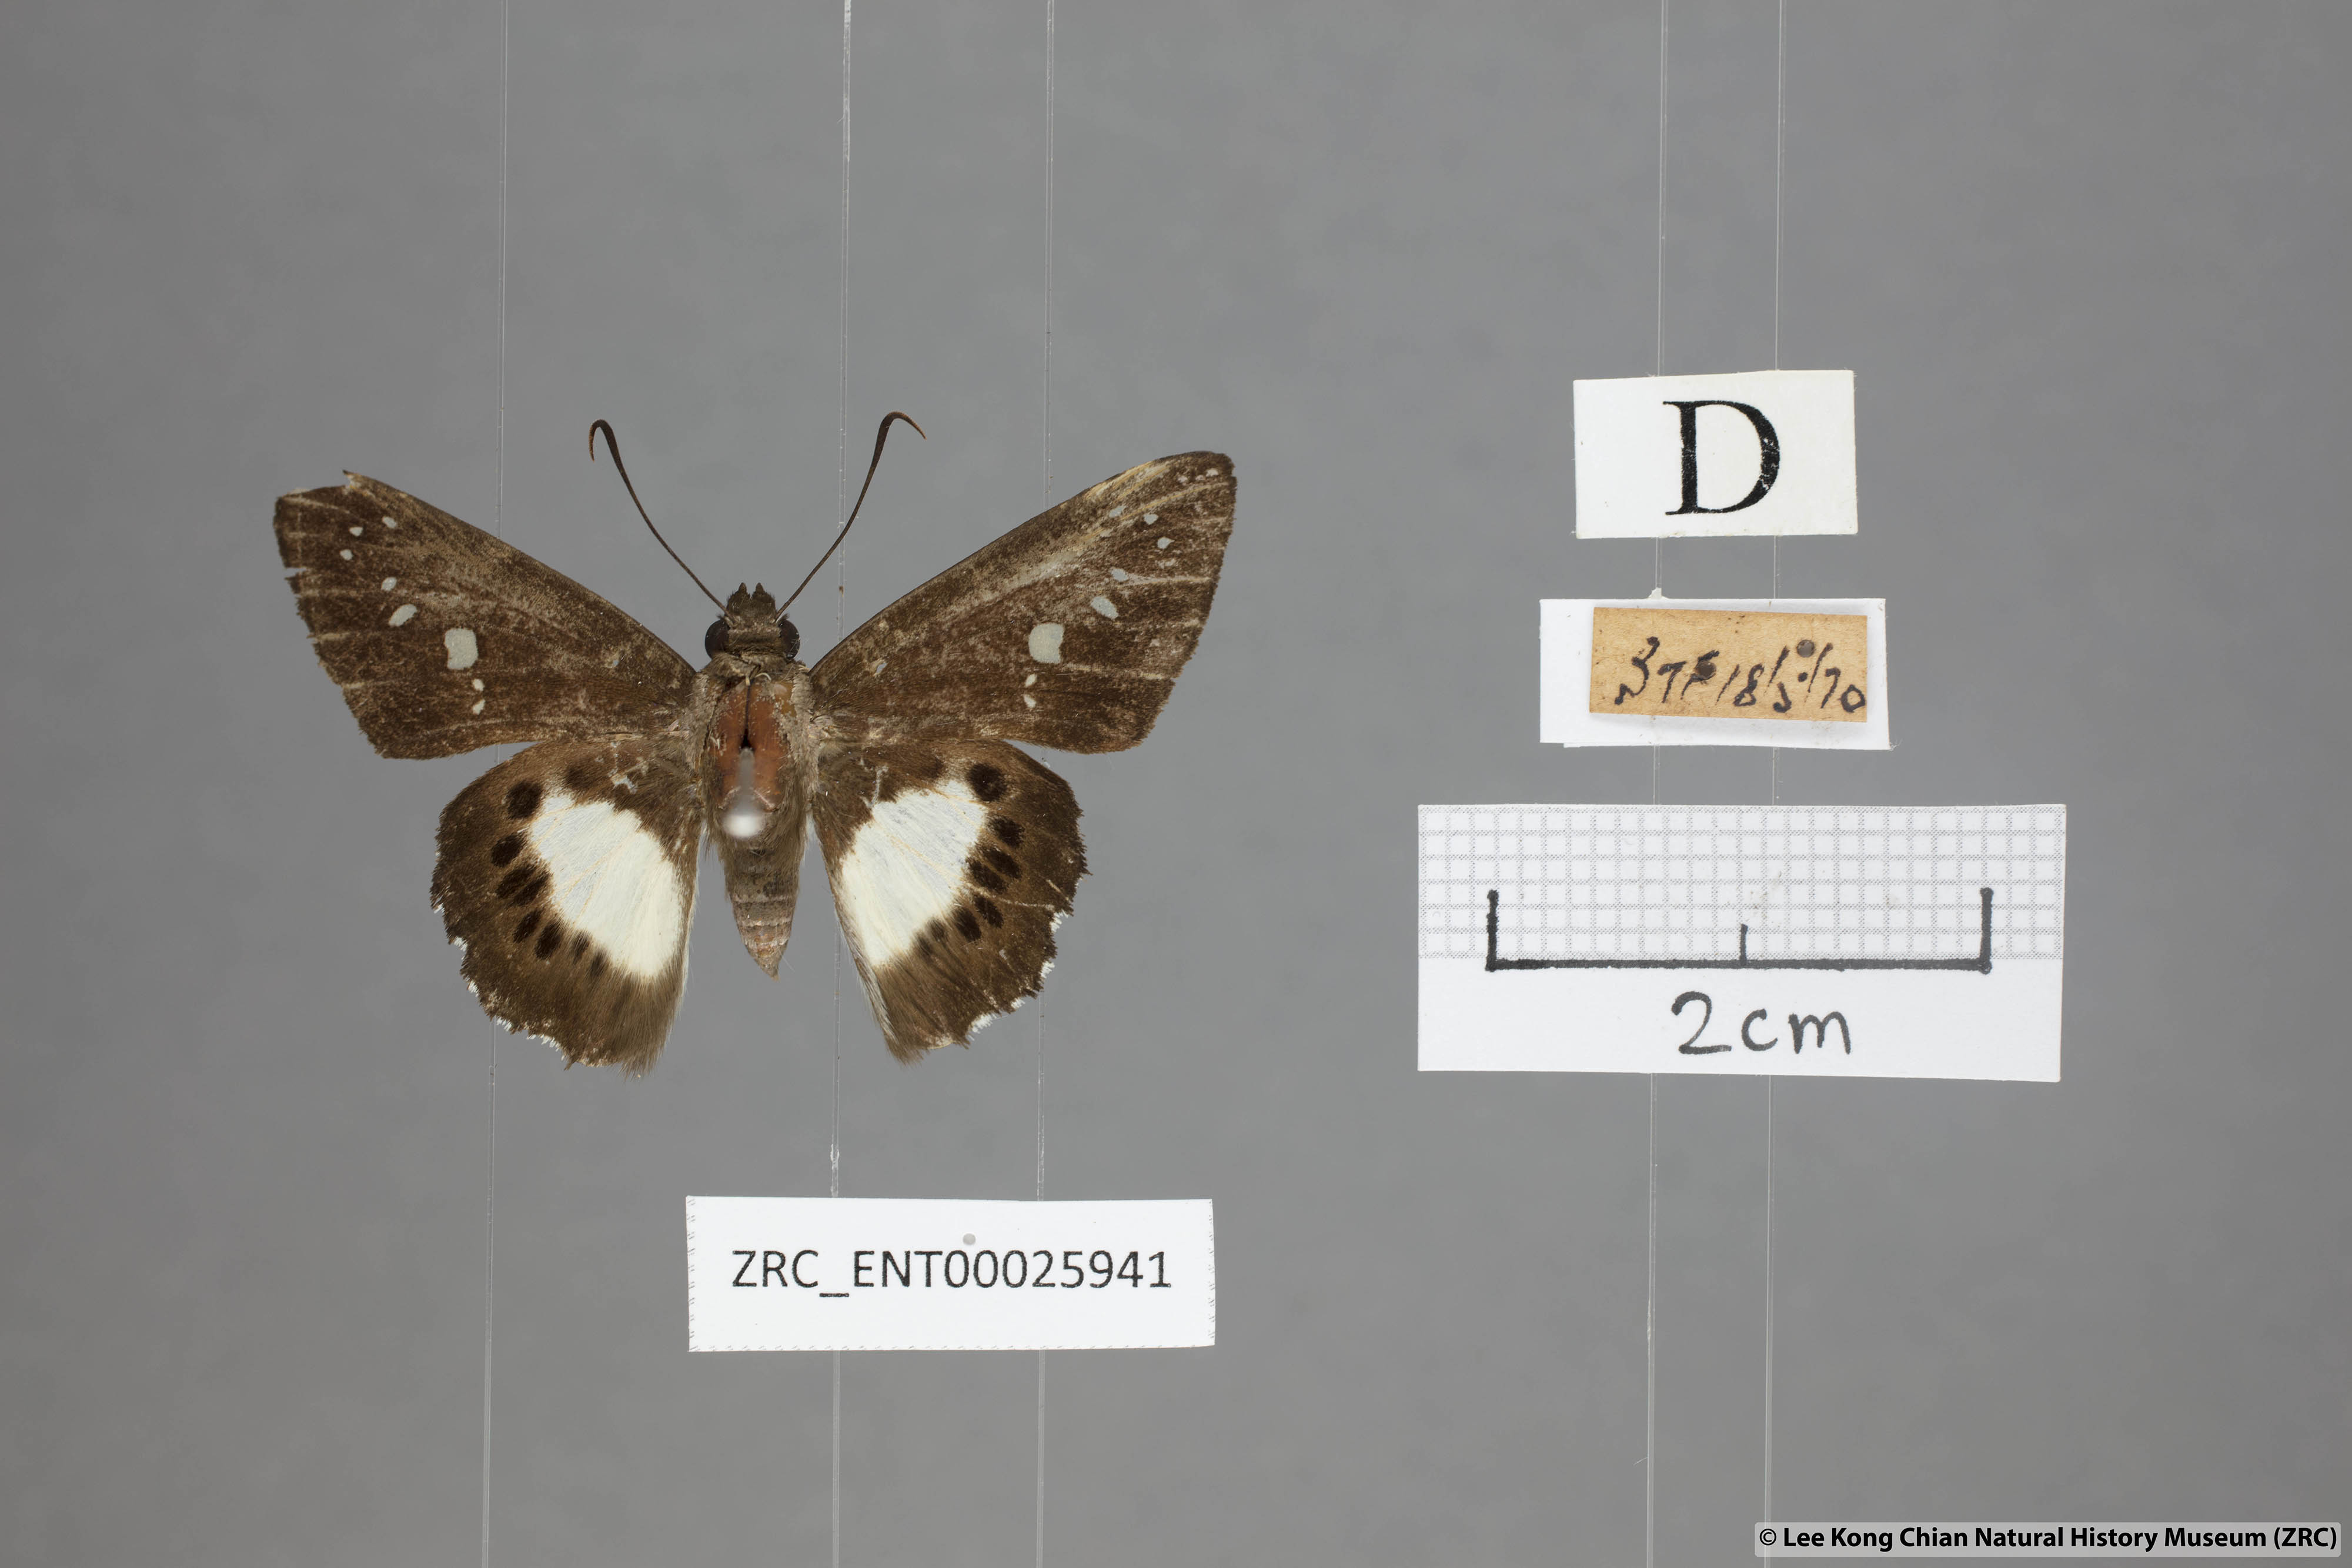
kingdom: Animalia
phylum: Arthropoda
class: Insecta
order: Lepidoptera
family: Hesperiidae
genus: Seseria
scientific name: Seseria affinis
